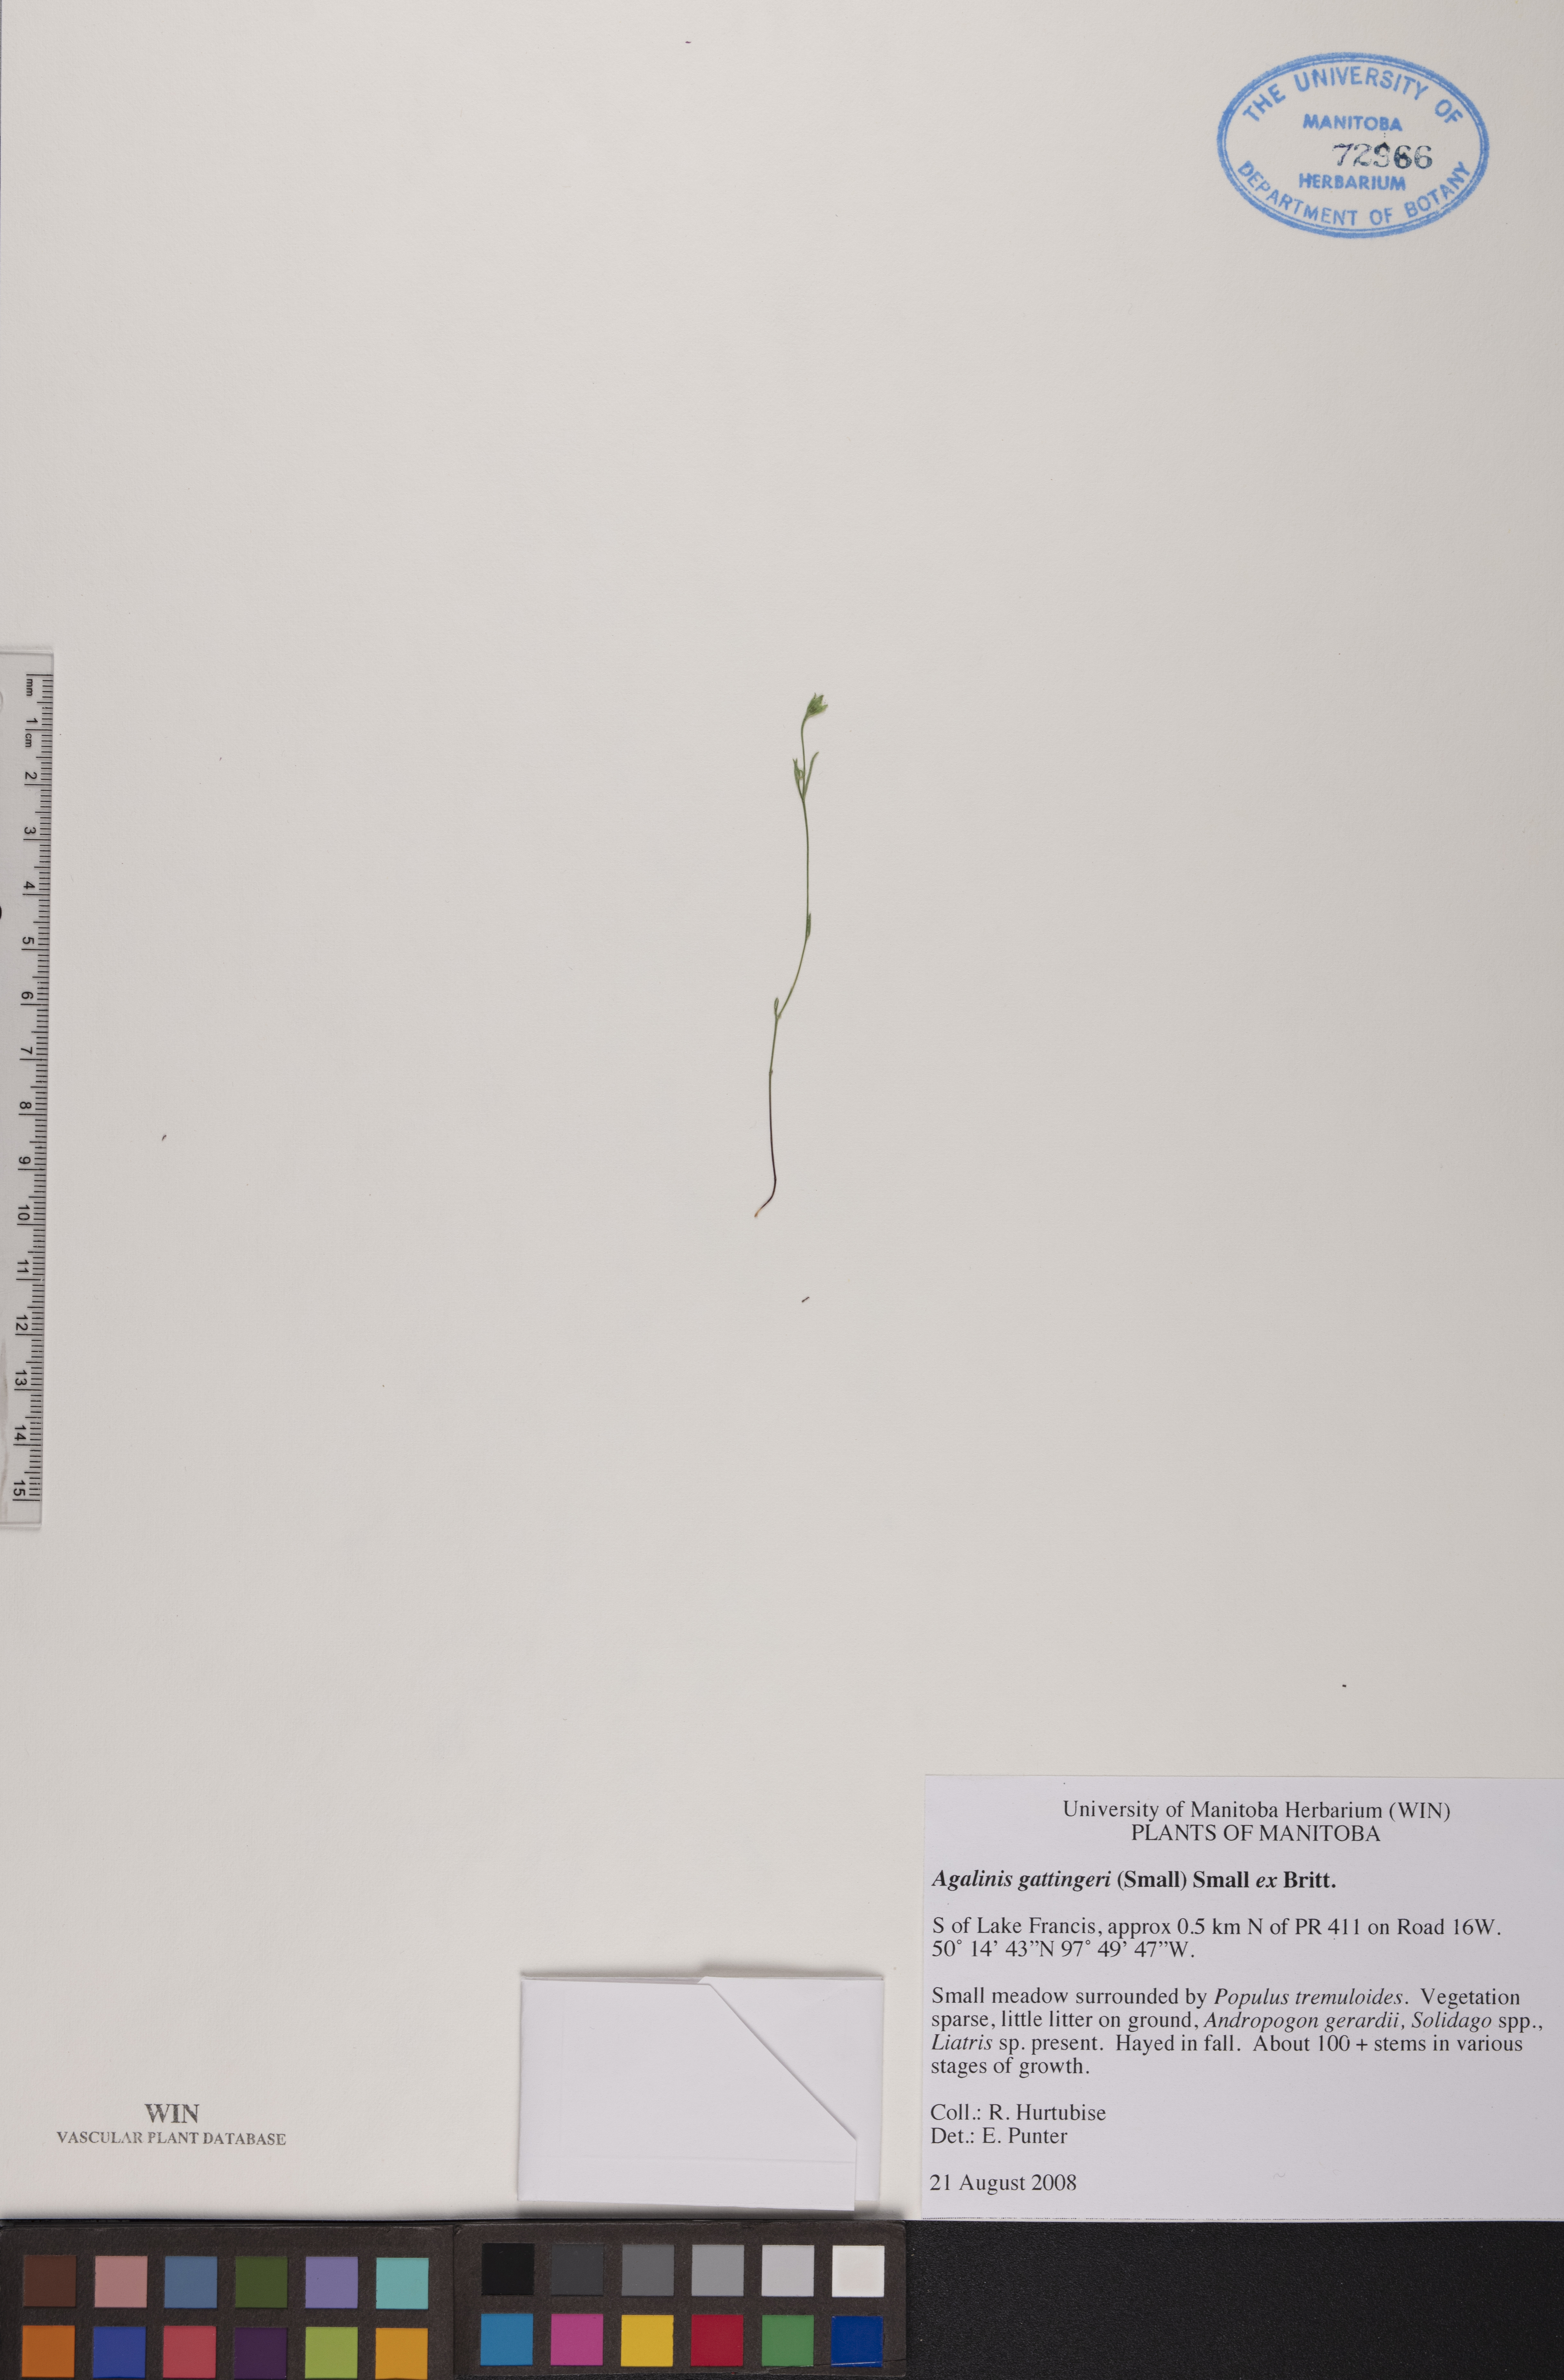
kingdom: Plantae
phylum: Tracheophyta
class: Magnoliopsida
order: Lamiales
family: Orobanchaceae
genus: Agalinis
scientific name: Agalinis gattingeri
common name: Gattinger's agalinis
